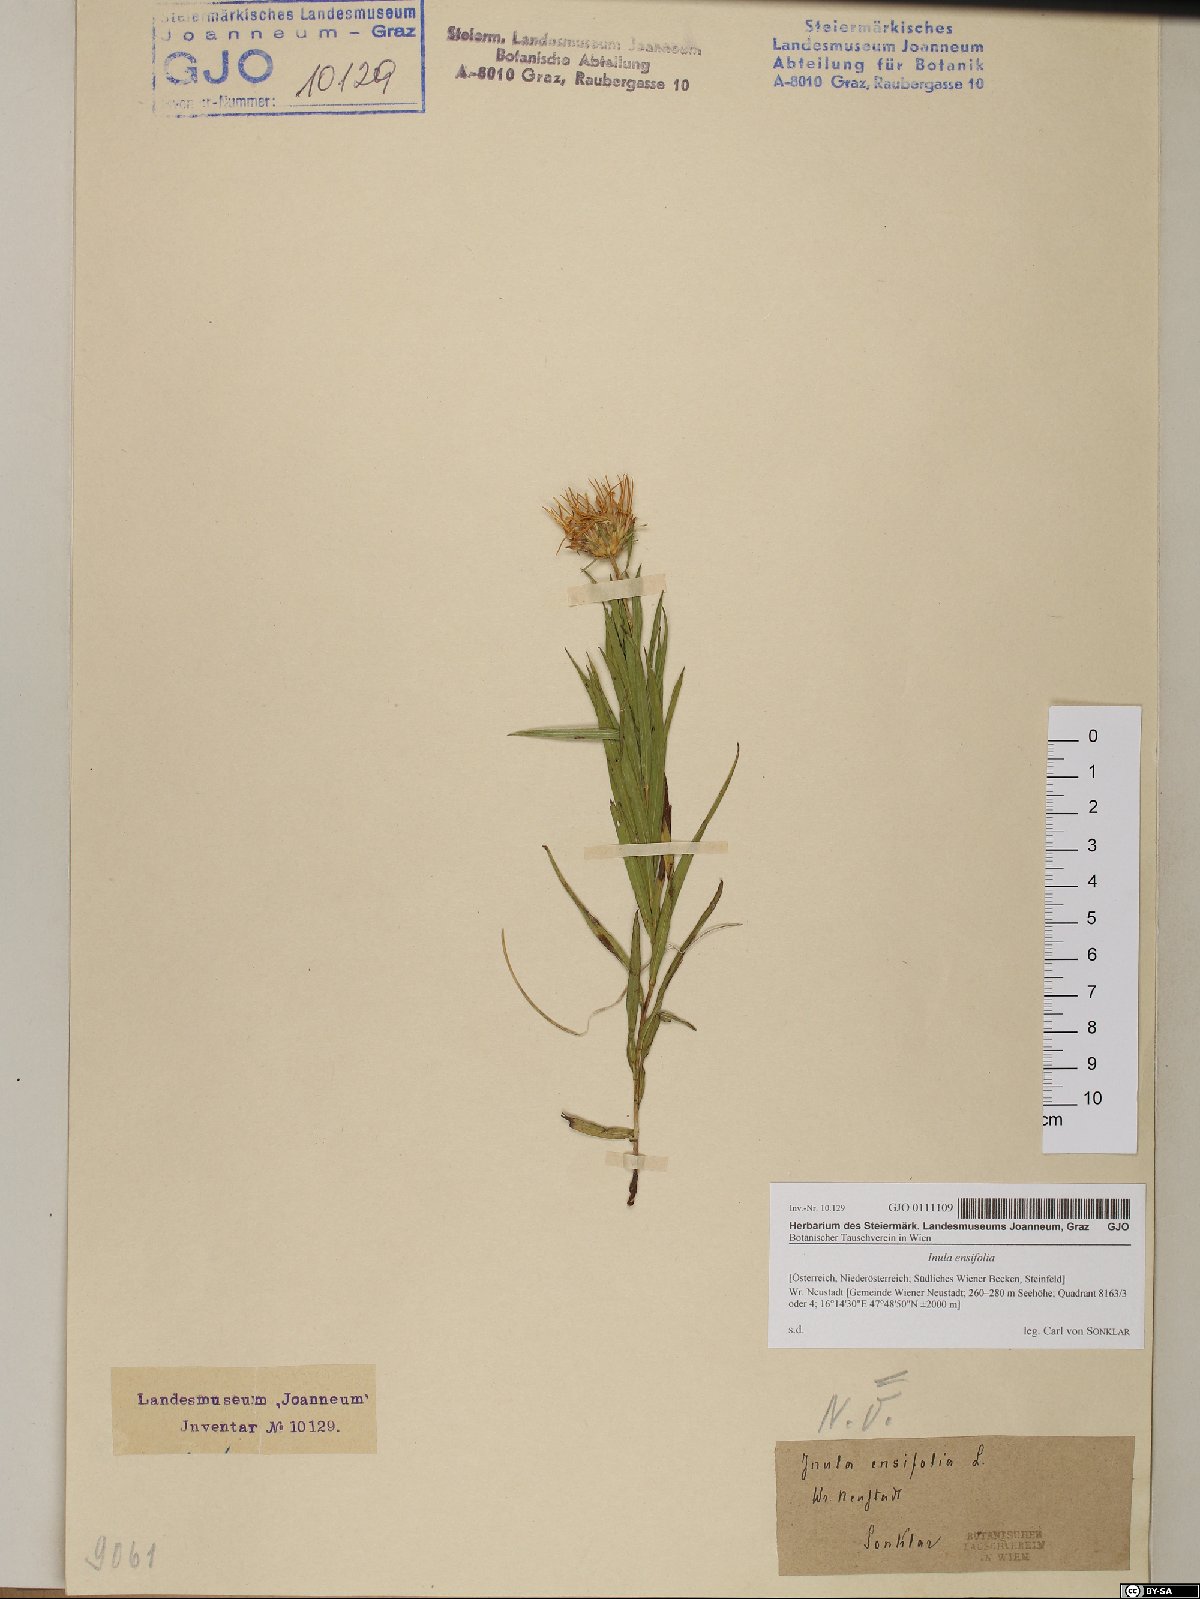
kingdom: Plantae
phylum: Tracheophyta
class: Magnoliopsida
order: Asterales
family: Asteraceae
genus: Pentanema
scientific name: Pentanema ensifolium
